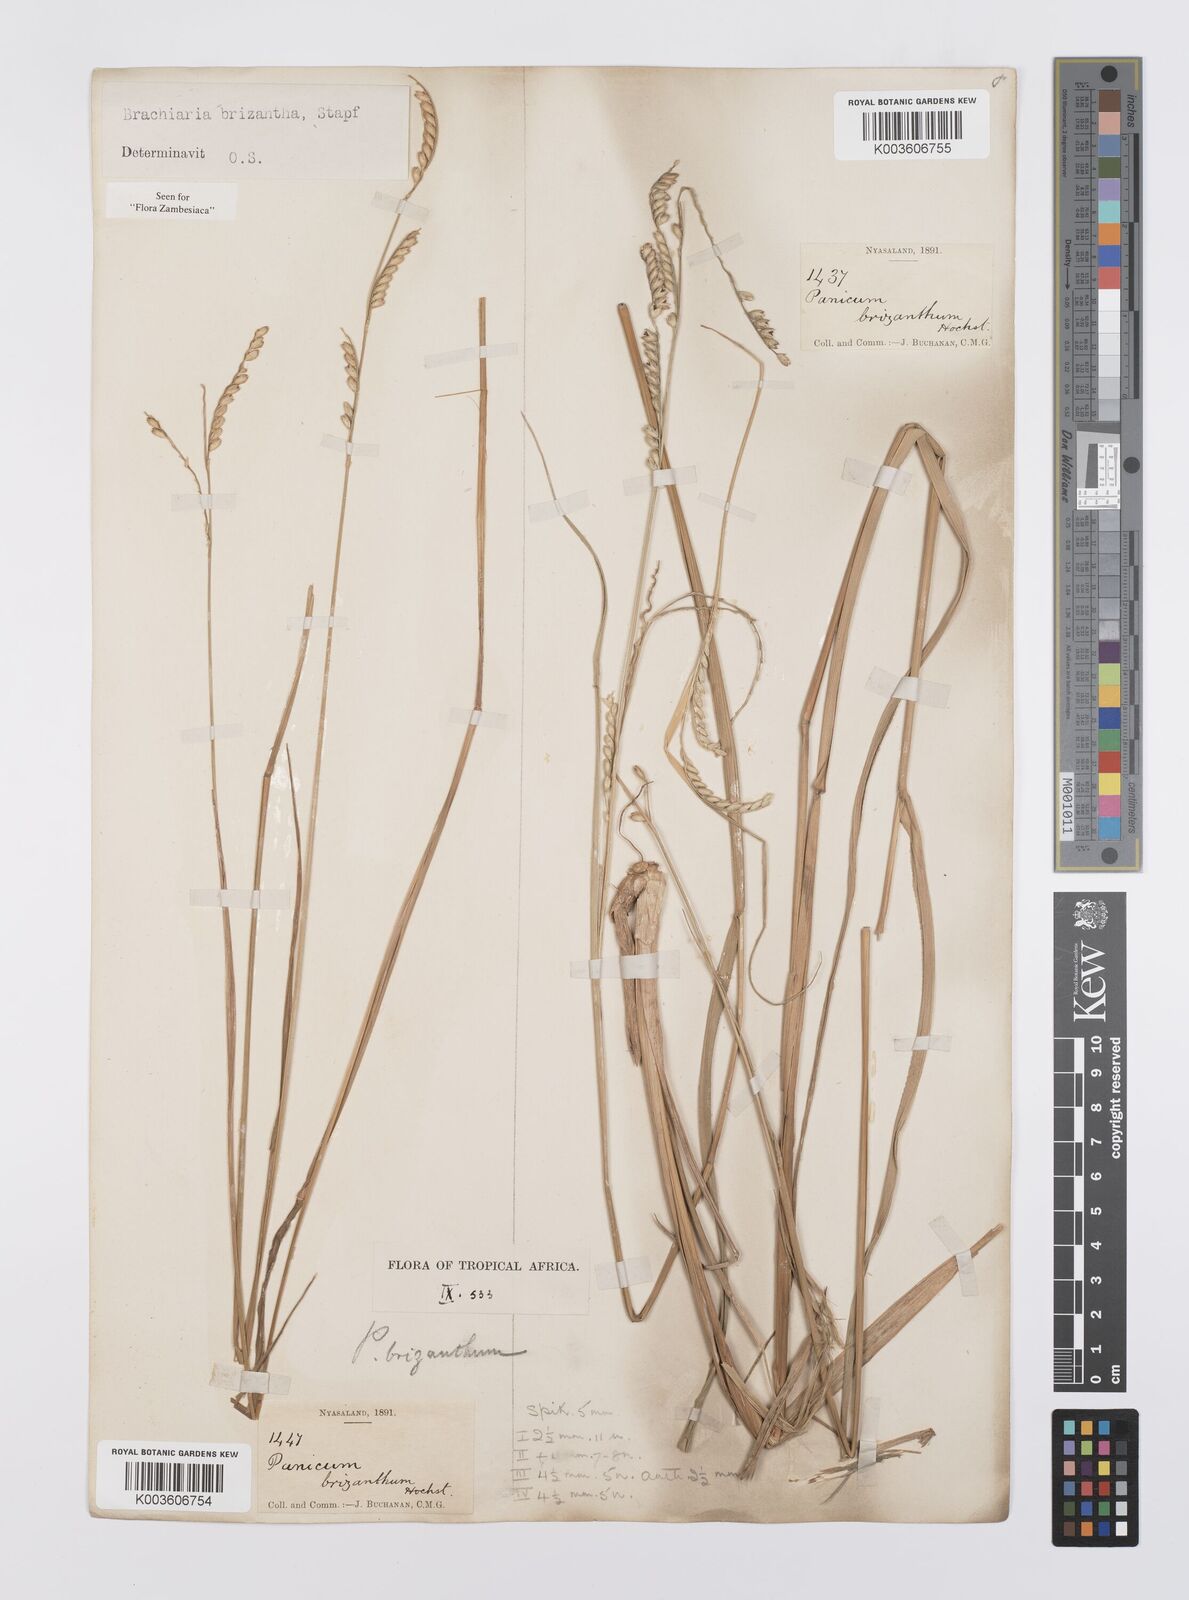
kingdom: Plantae
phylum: Tracheophyta
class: Liliopsida
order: Poales
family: Poaceae
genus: Urochloa
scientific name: Urochloa brizantha
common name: Palisade signalgrass
